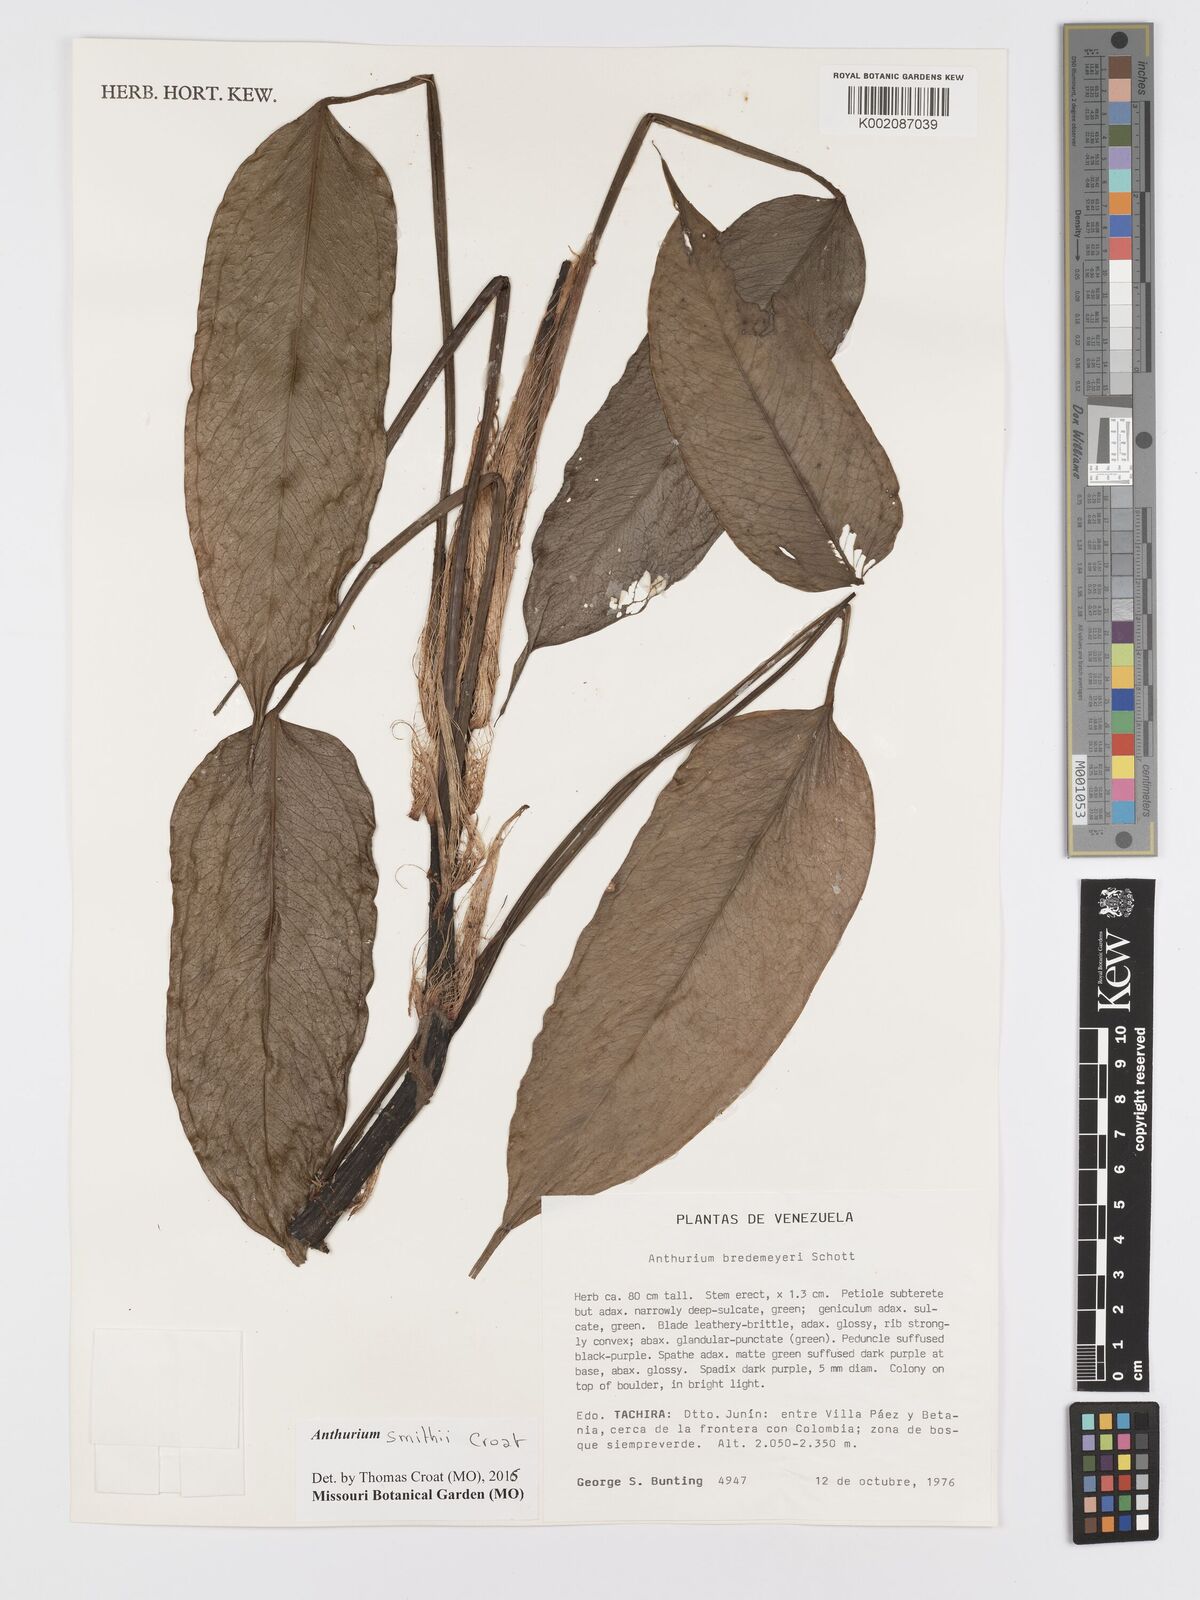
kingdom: Plantae
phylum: Tracheophyta
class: Liliopsida
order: Alismatales
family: Araceae
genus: Anthurium
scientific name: Anthurium smithii
